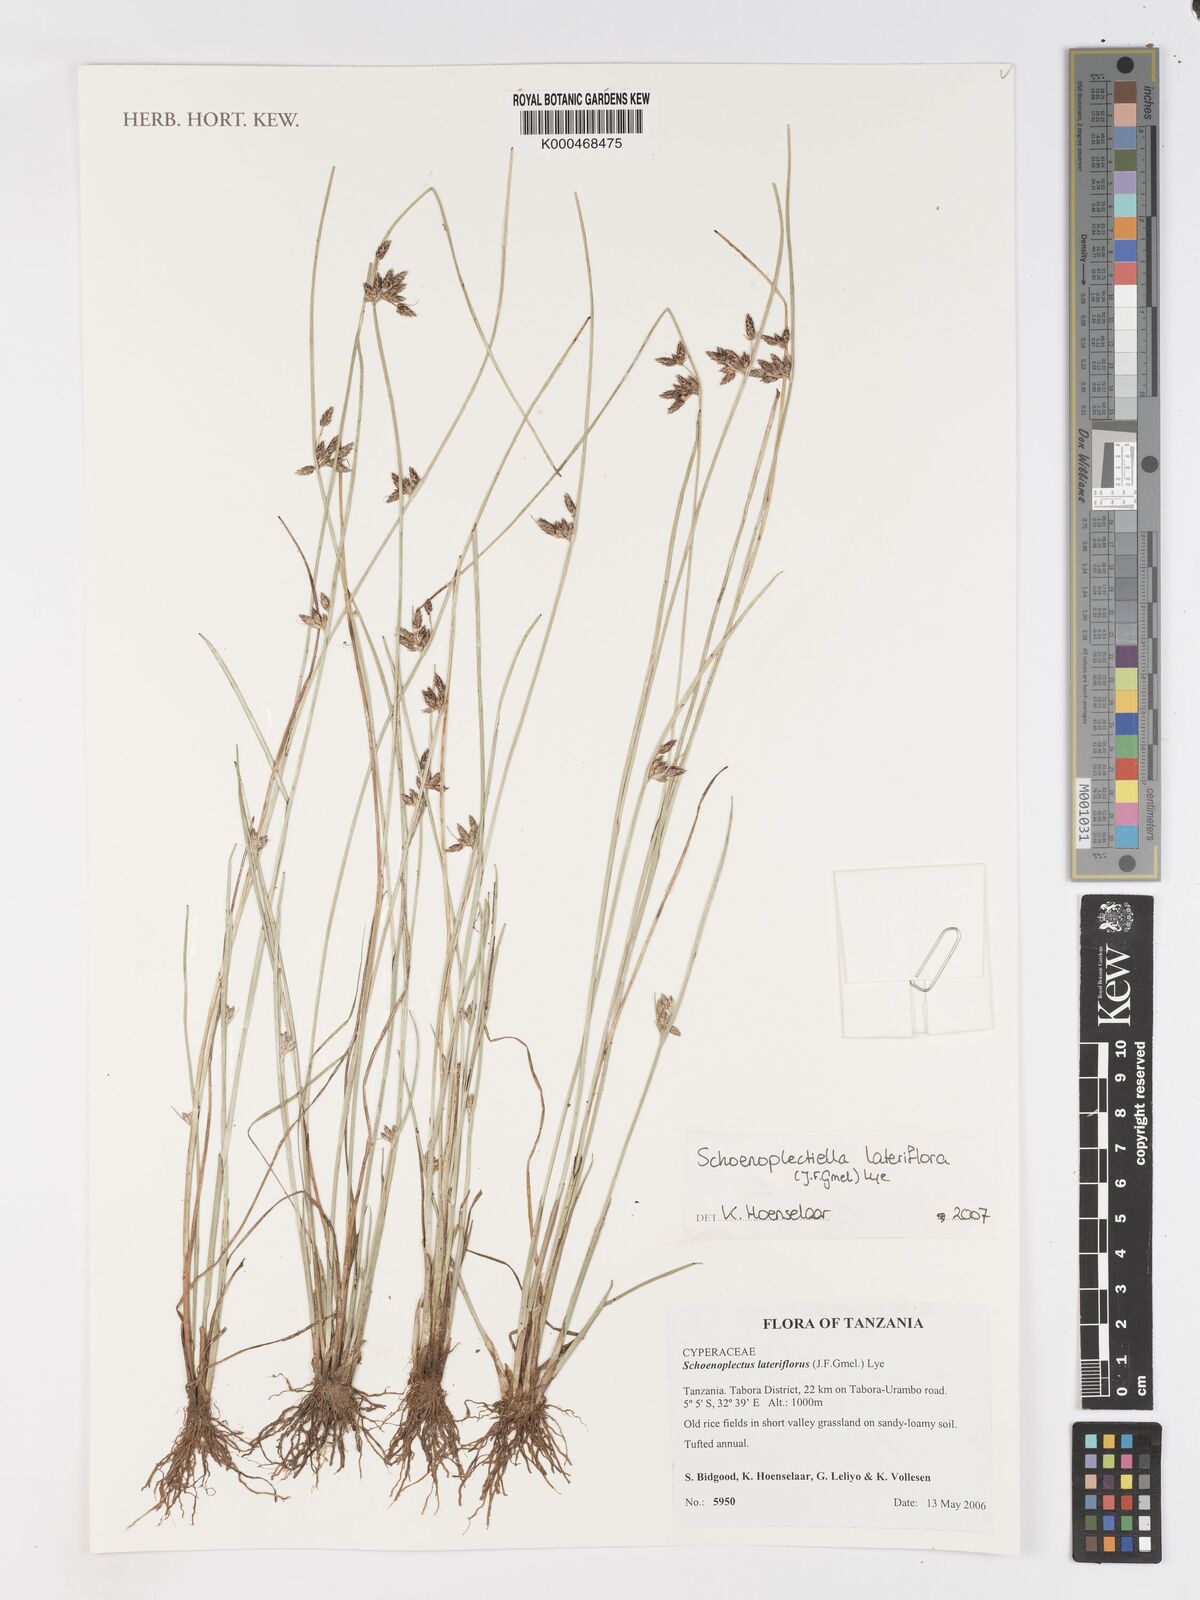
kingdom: Plantae
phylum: Tracheophyta
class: Liliopsida
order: Poales
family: Cyperaceae
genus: Schoenoplectiella
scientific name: Schoenoplectiella lateriflora
